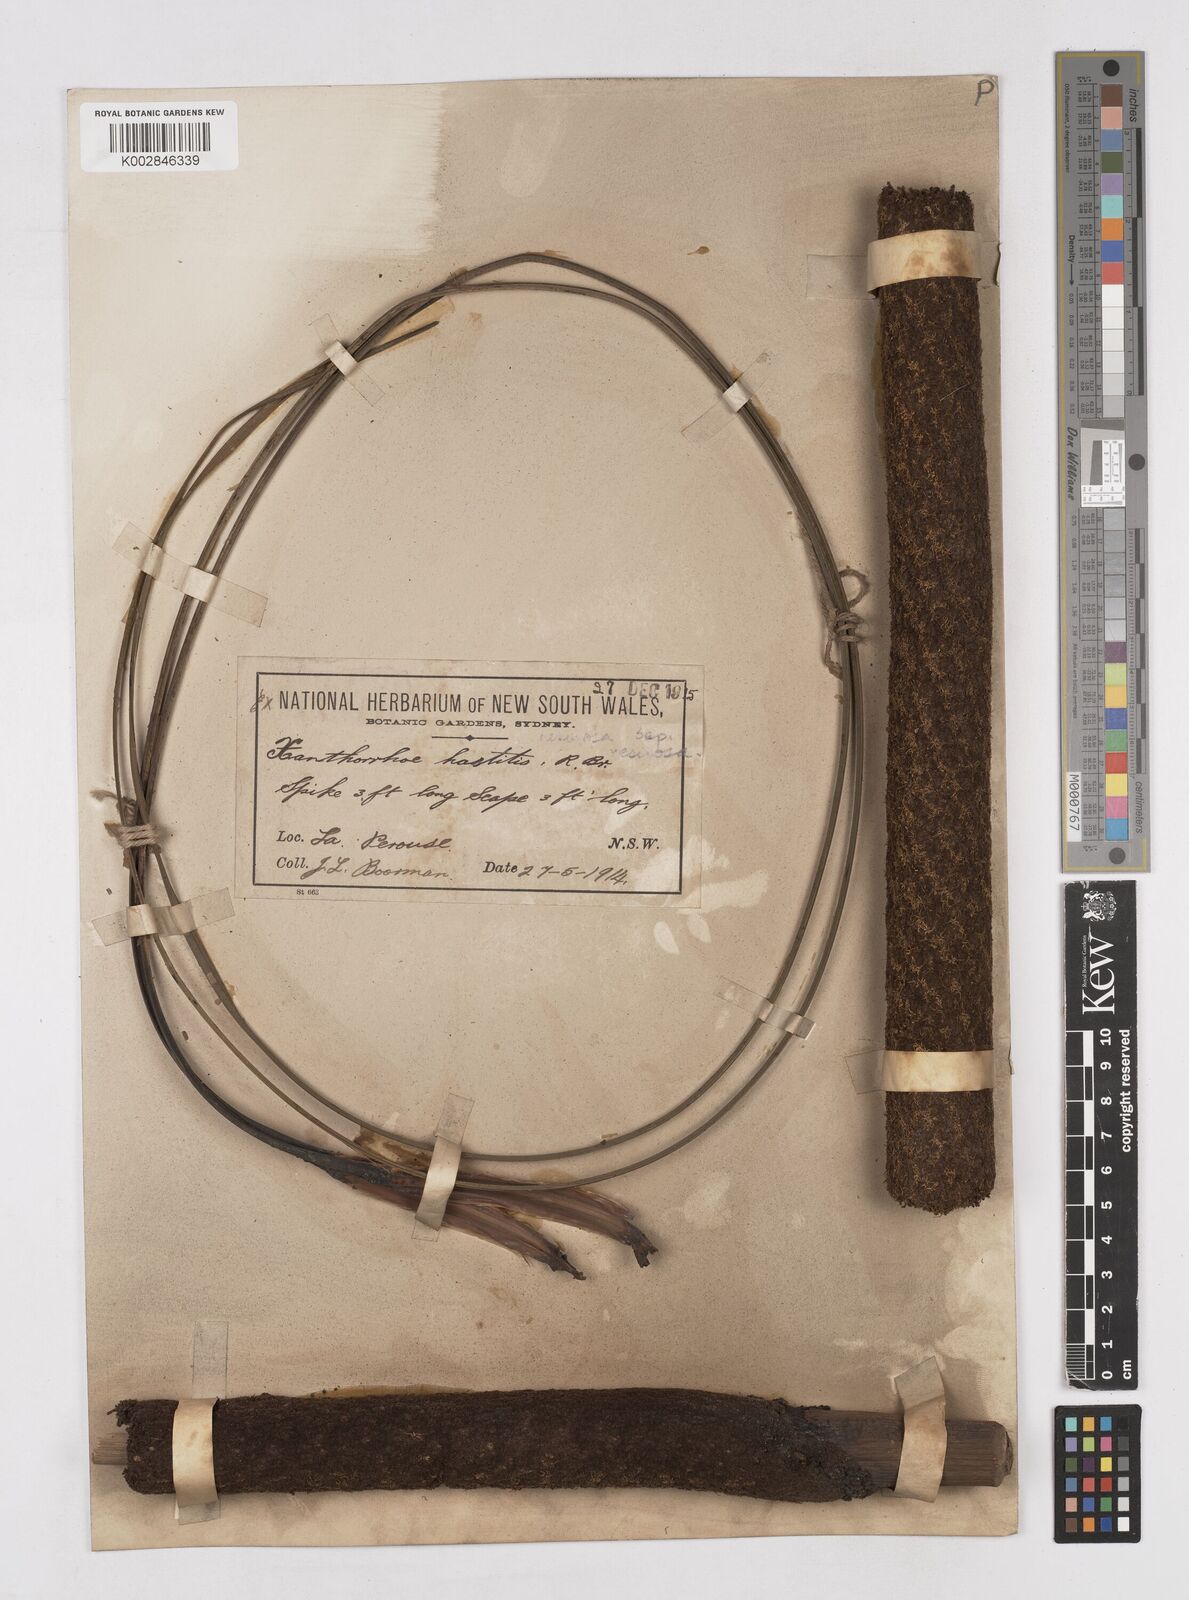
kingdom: Plantae
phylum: Tracheophyta
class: Liliopsida
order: Asparagales
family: Asphodelaceae
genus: Xanthorrhoea
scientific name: Xanthorrhoea resinosa
